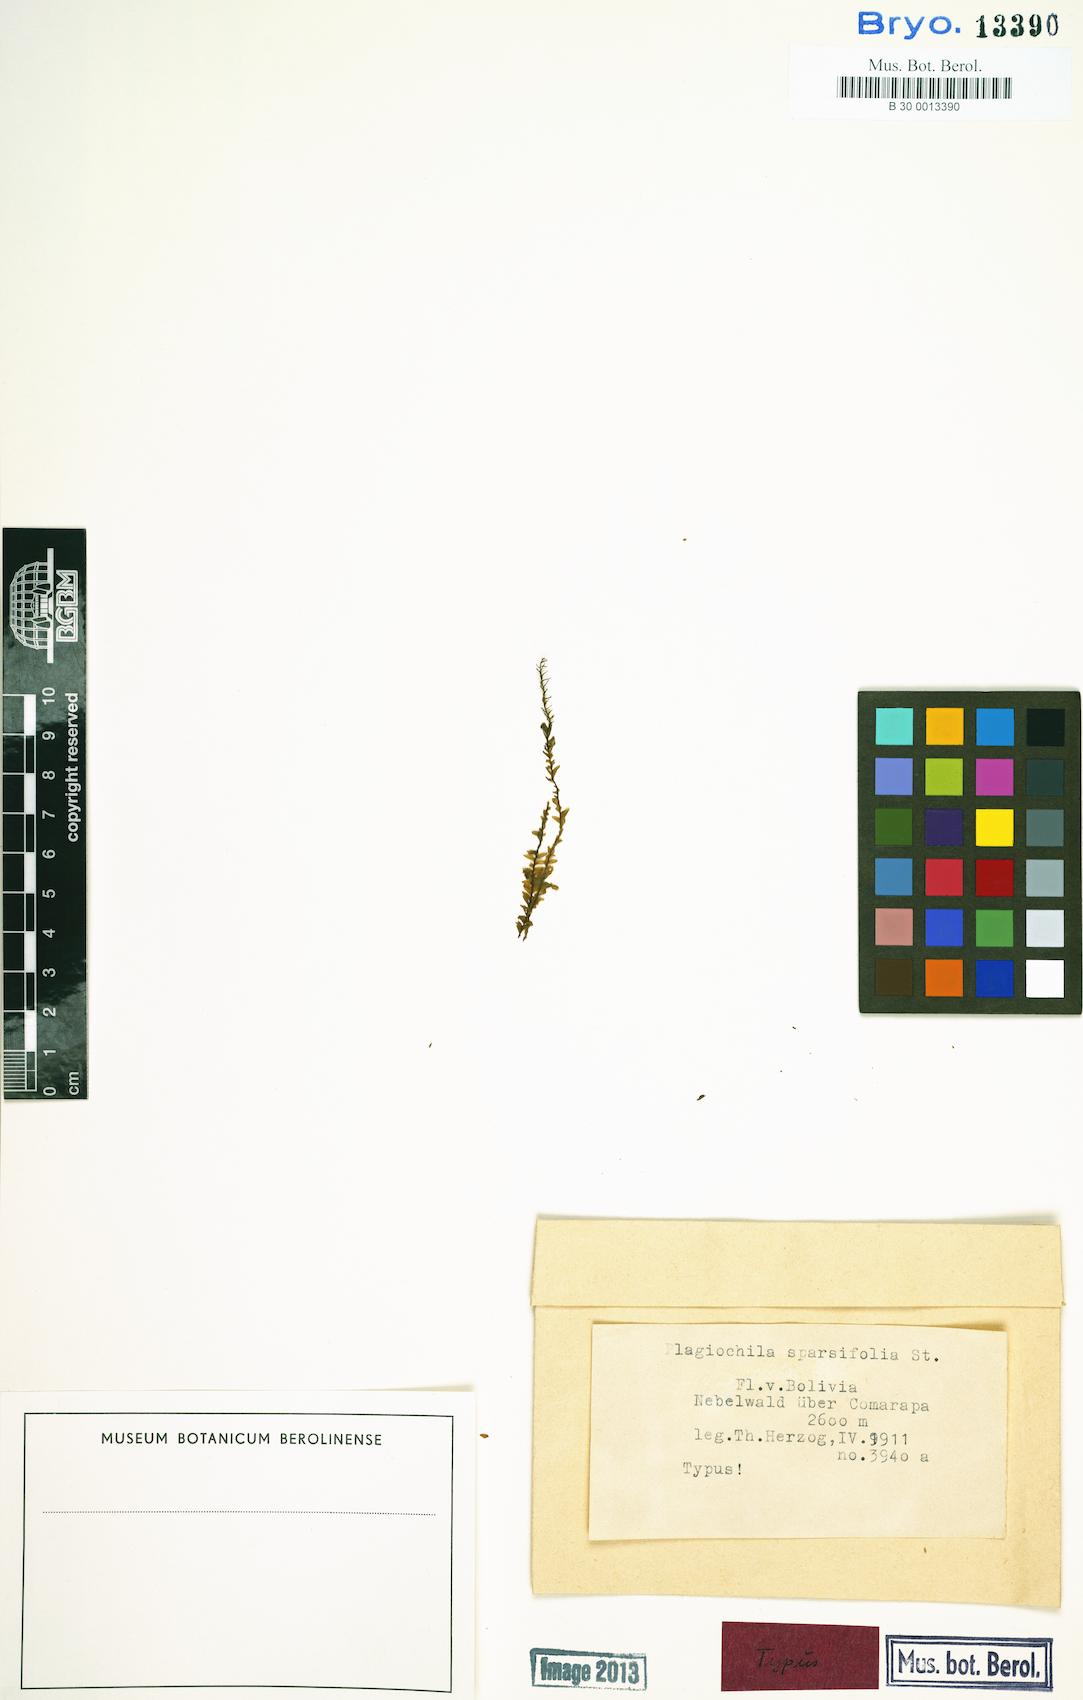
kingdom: Plantae
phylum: Marchantiophyta
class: Jungermanniopsida
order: Jungermanniales
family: Plagiochilaceae
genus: Plagiochila
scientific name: Plagiochila macra
